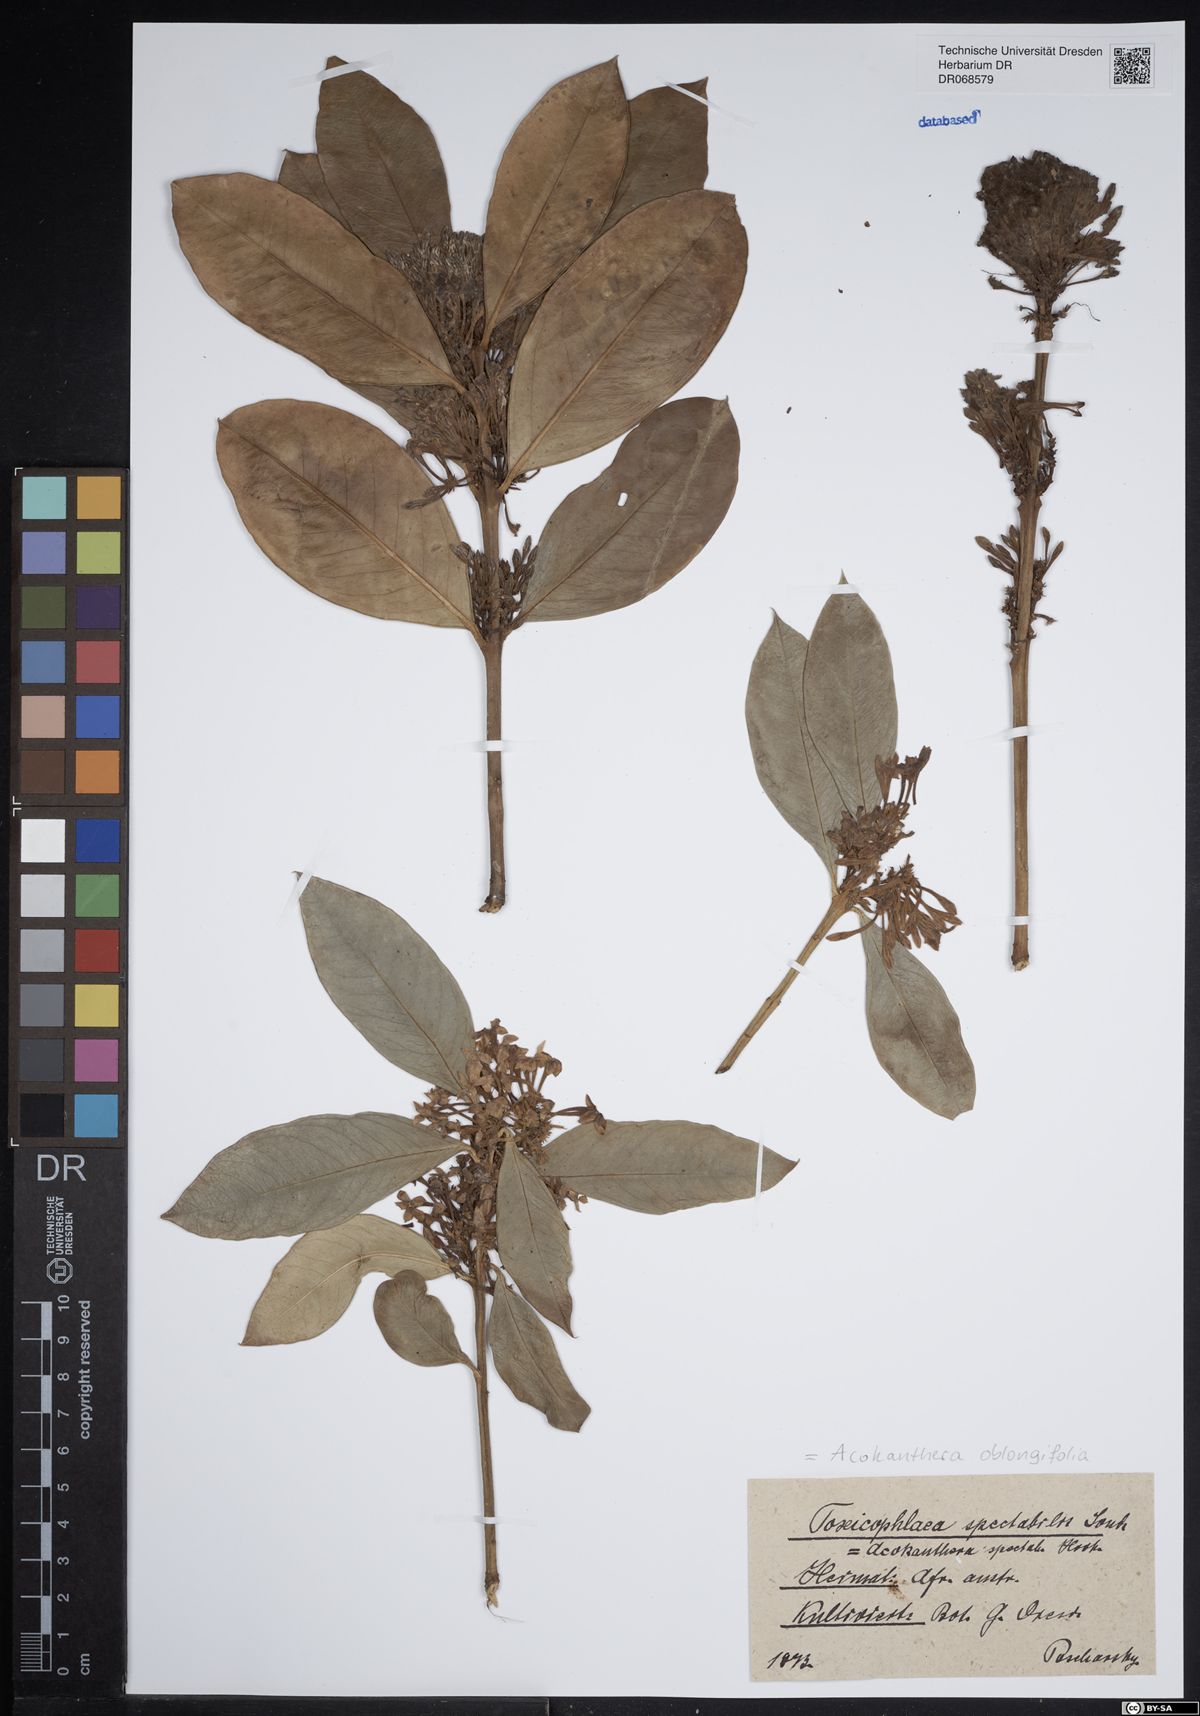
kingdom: Plantae
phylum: Tracheophyta
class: Magnoliopsida
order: Gentianales
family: Apocynaceae
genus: Acokanthera
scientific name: Acokanthera oblongifolia
